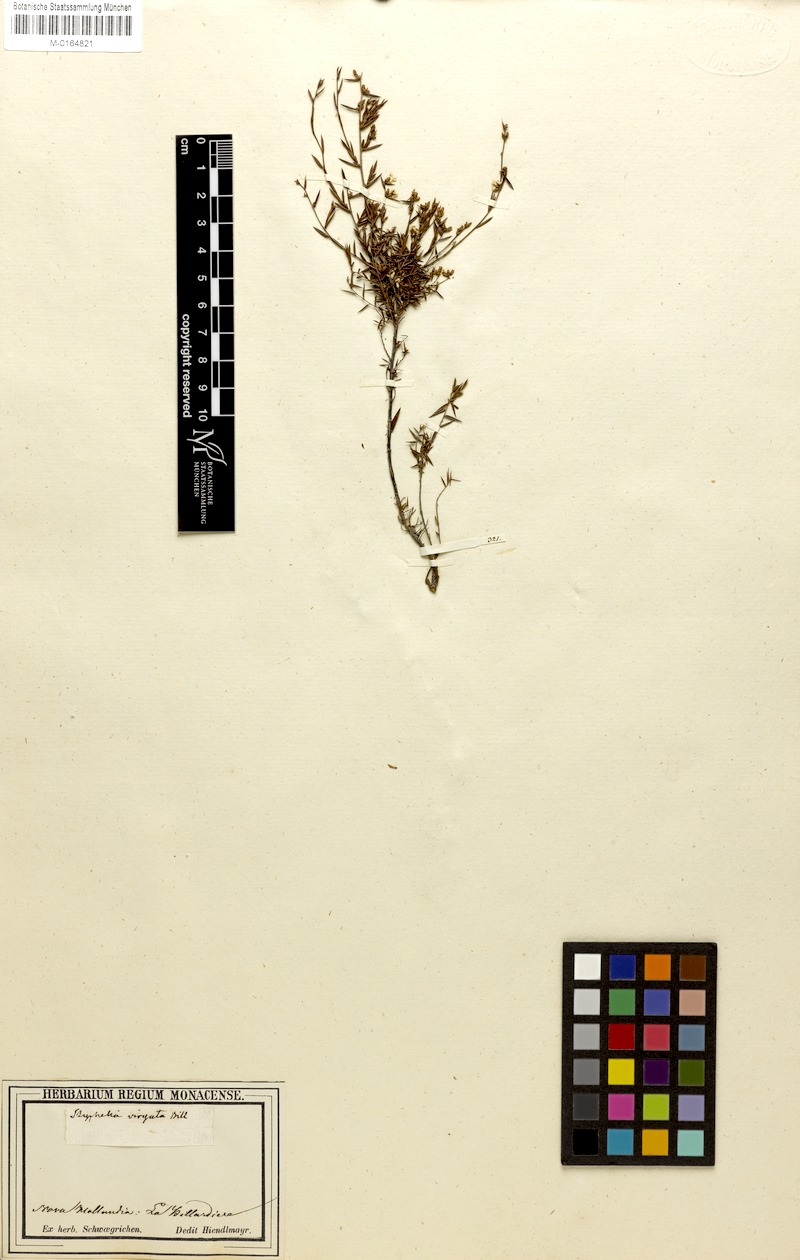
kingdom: Plantae
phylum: Tracheophyta
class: Magnoliopsida
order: Ericales
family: Ericaceae
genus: Leucopogon
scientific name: Leucopogon virgatus
